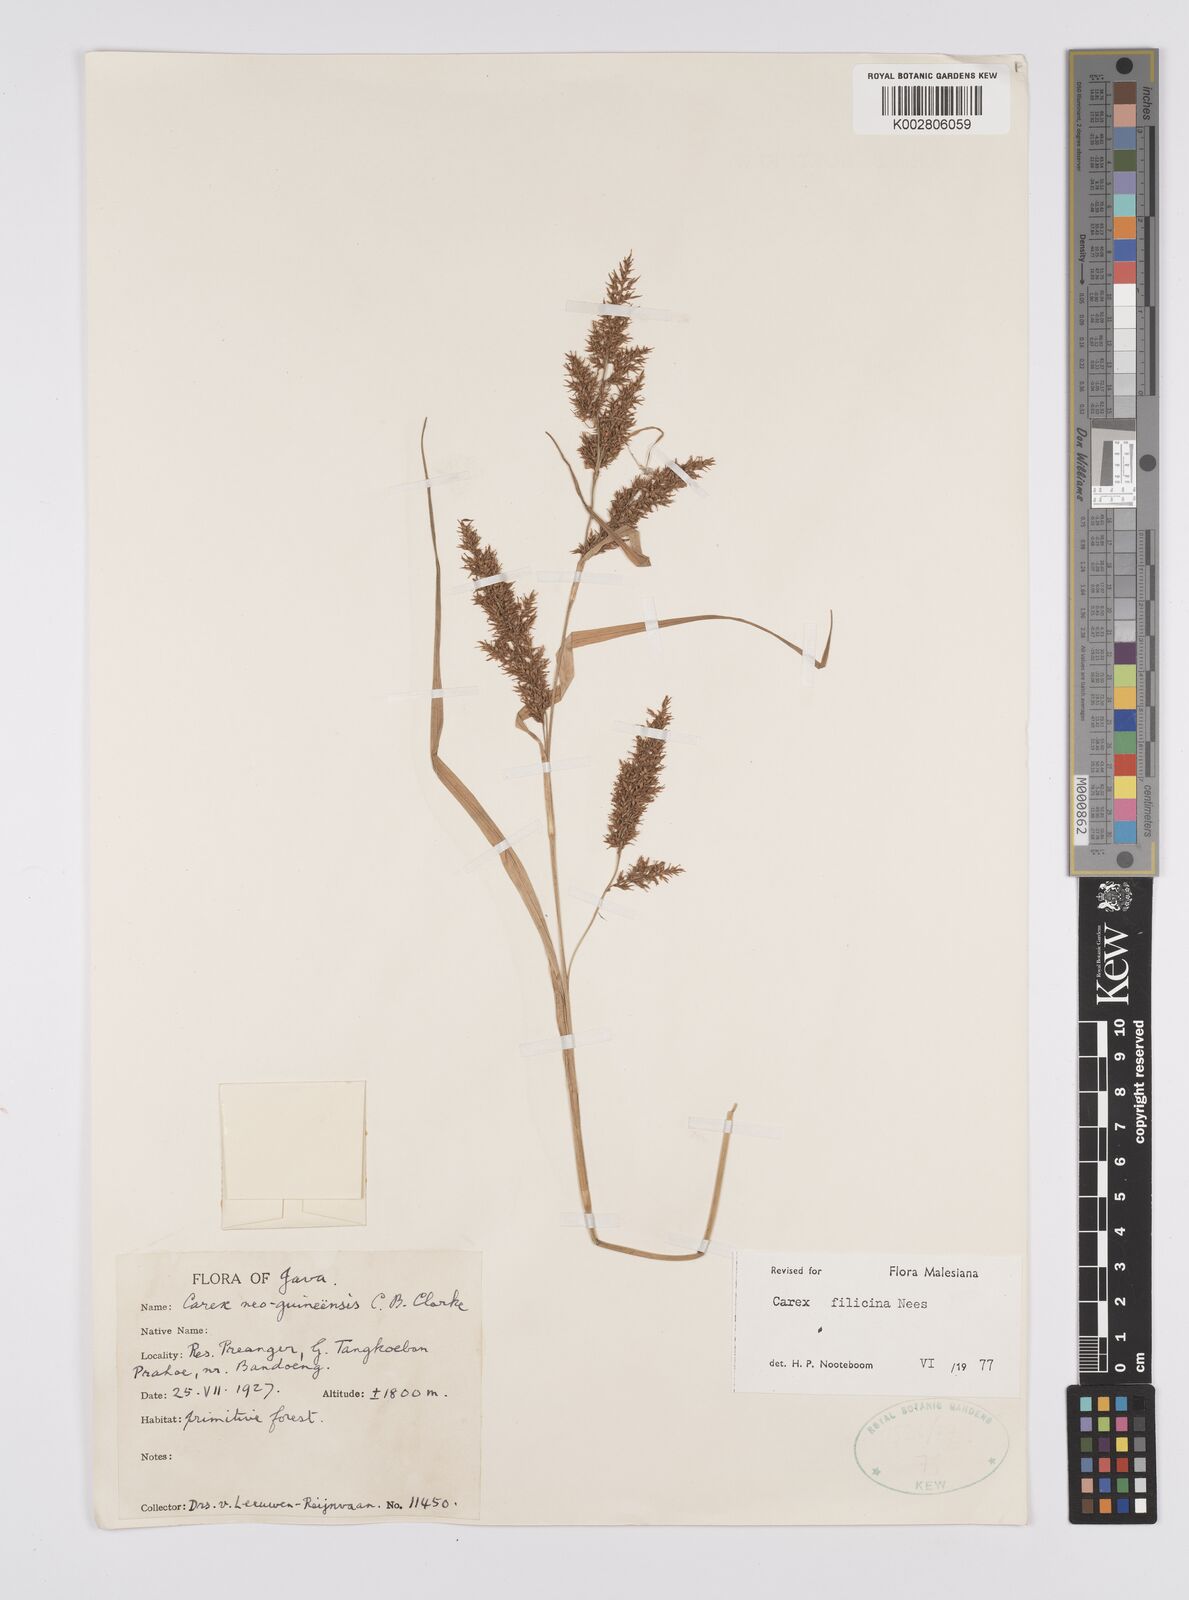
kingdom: Plantae
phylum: Tracheophyta
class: Liliopsida
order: Poales
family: Cyperaceae
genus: Carex
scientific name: Carex filicina
